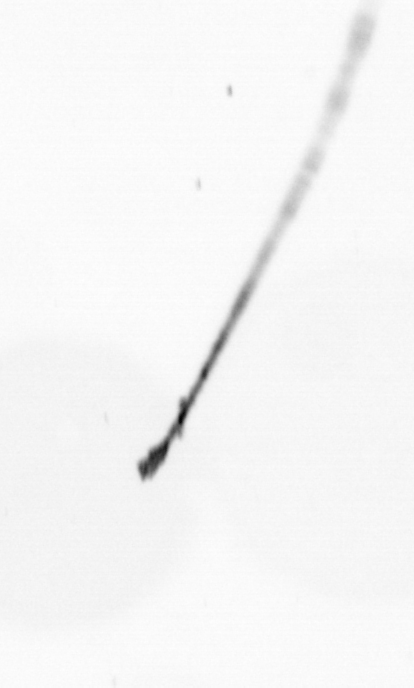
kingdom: Chromista
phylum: Ochrophyta
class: Bacillariophyceae
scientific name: Bacillariophyceae
